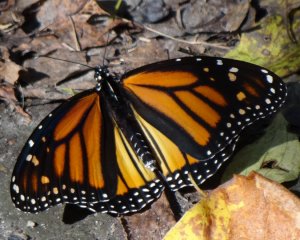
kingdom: Animalia
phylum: Arthropoda
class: Insecta
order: Lepidoptera
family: Nymphalidae
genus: Danaus
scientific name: Danaus plexippus
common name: Monarch
